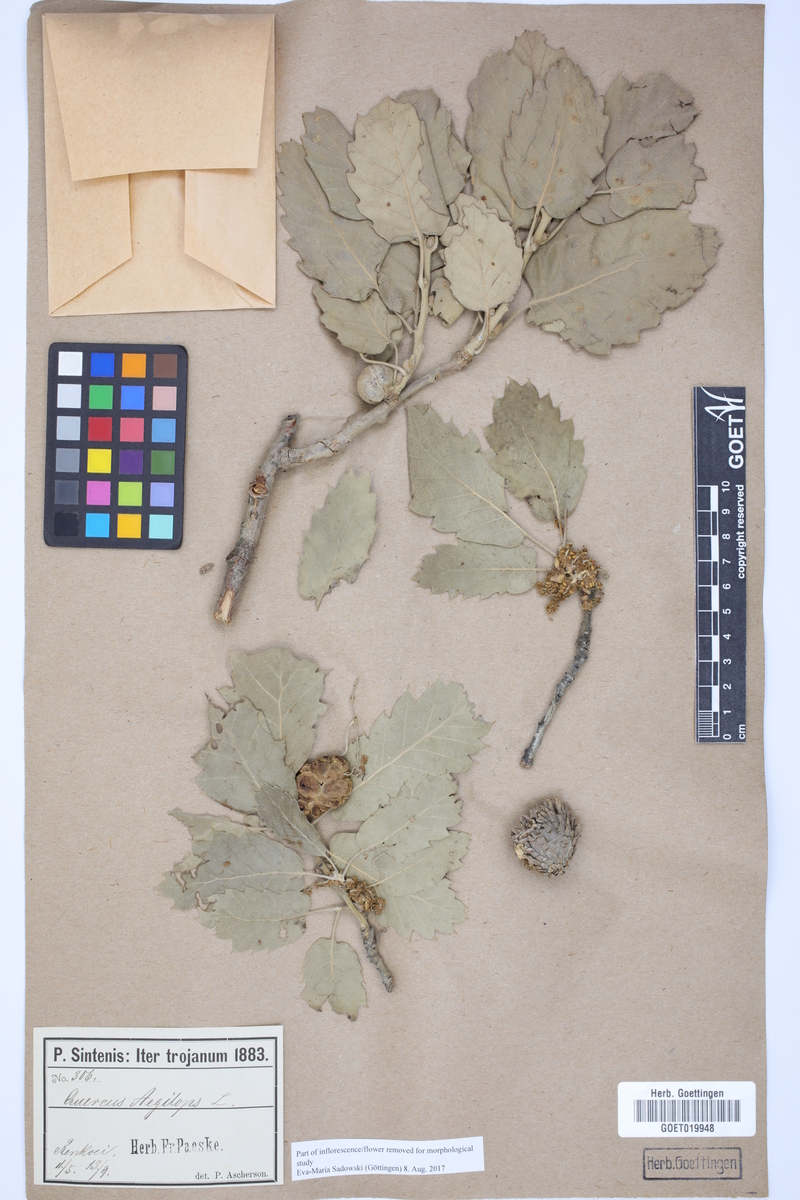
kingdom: Plantae
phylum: Tracheophyta
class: Magnoliopsida
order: Fagales
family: Fagaceae
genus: Quercus
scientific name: Quercus ithaburensis
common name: Tabor oak
